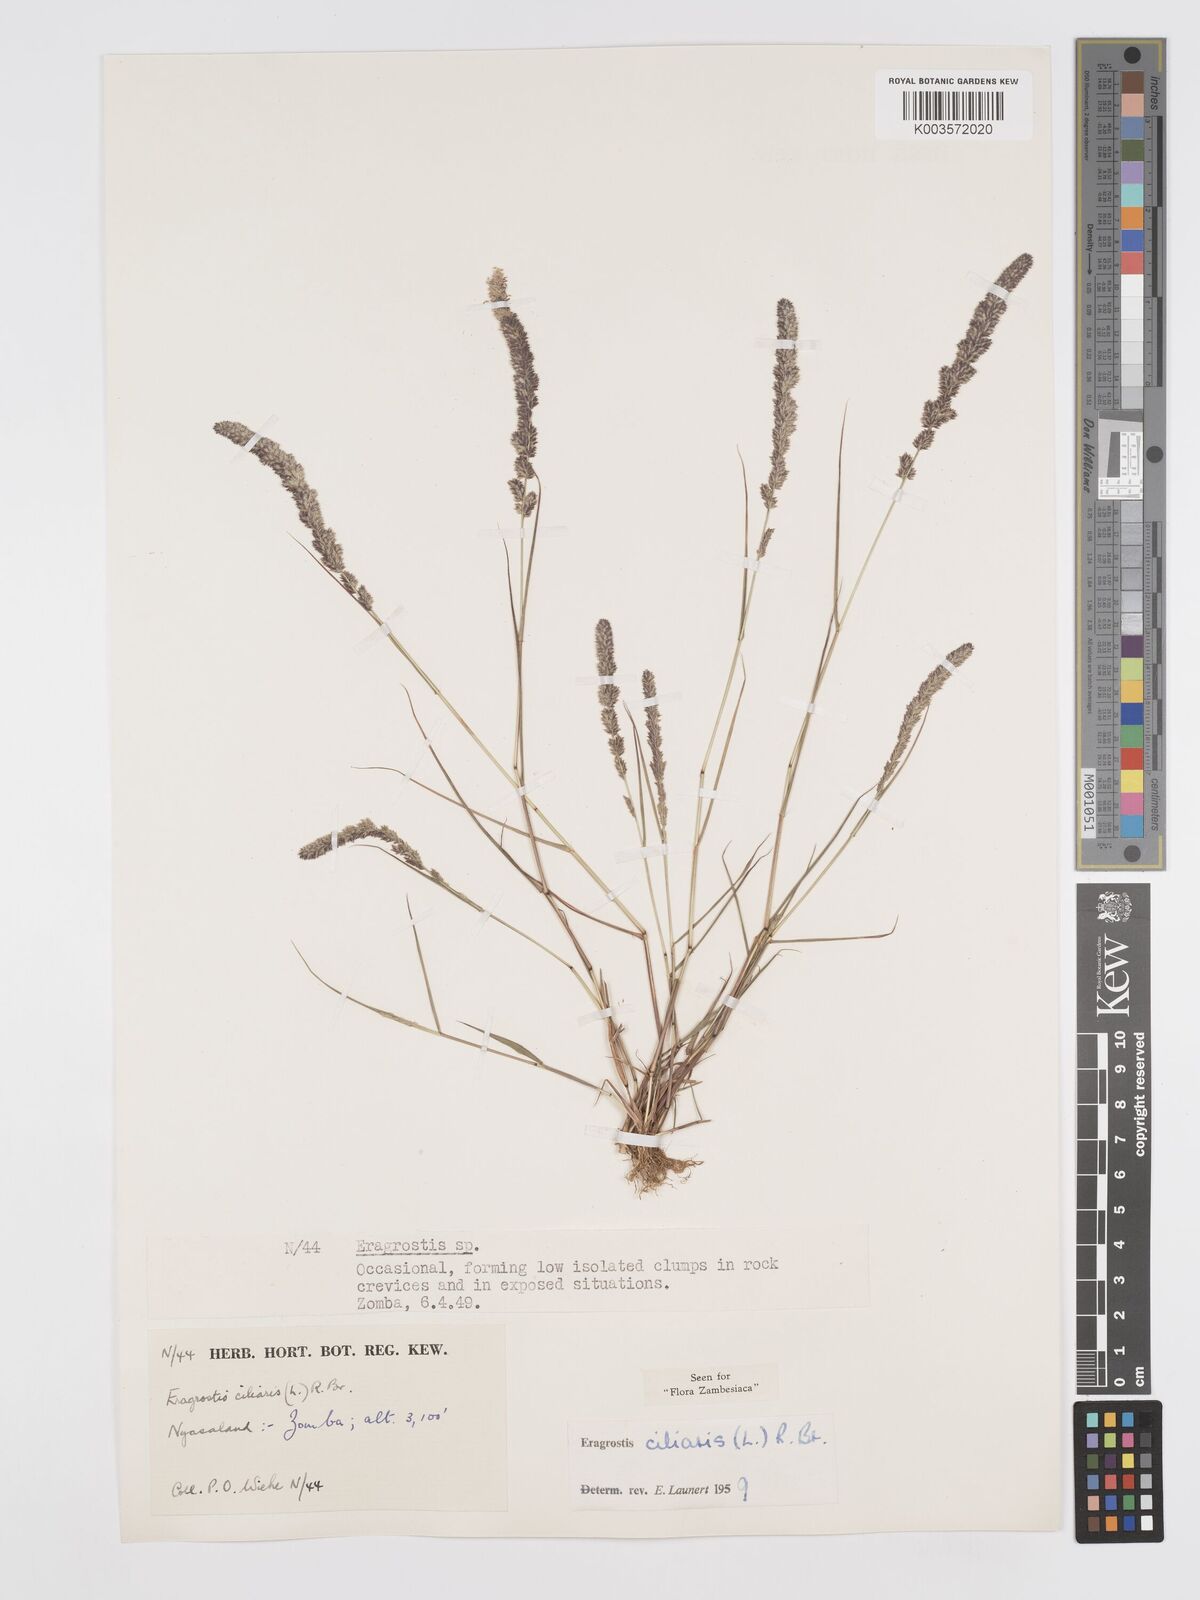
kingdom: Plantae
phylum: Tracheophyta
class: Liliopsida
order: Poales
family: Poaceae
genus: Eragrostis
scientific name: Eragrostis ciliaris
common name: Gophertail lovegrass
